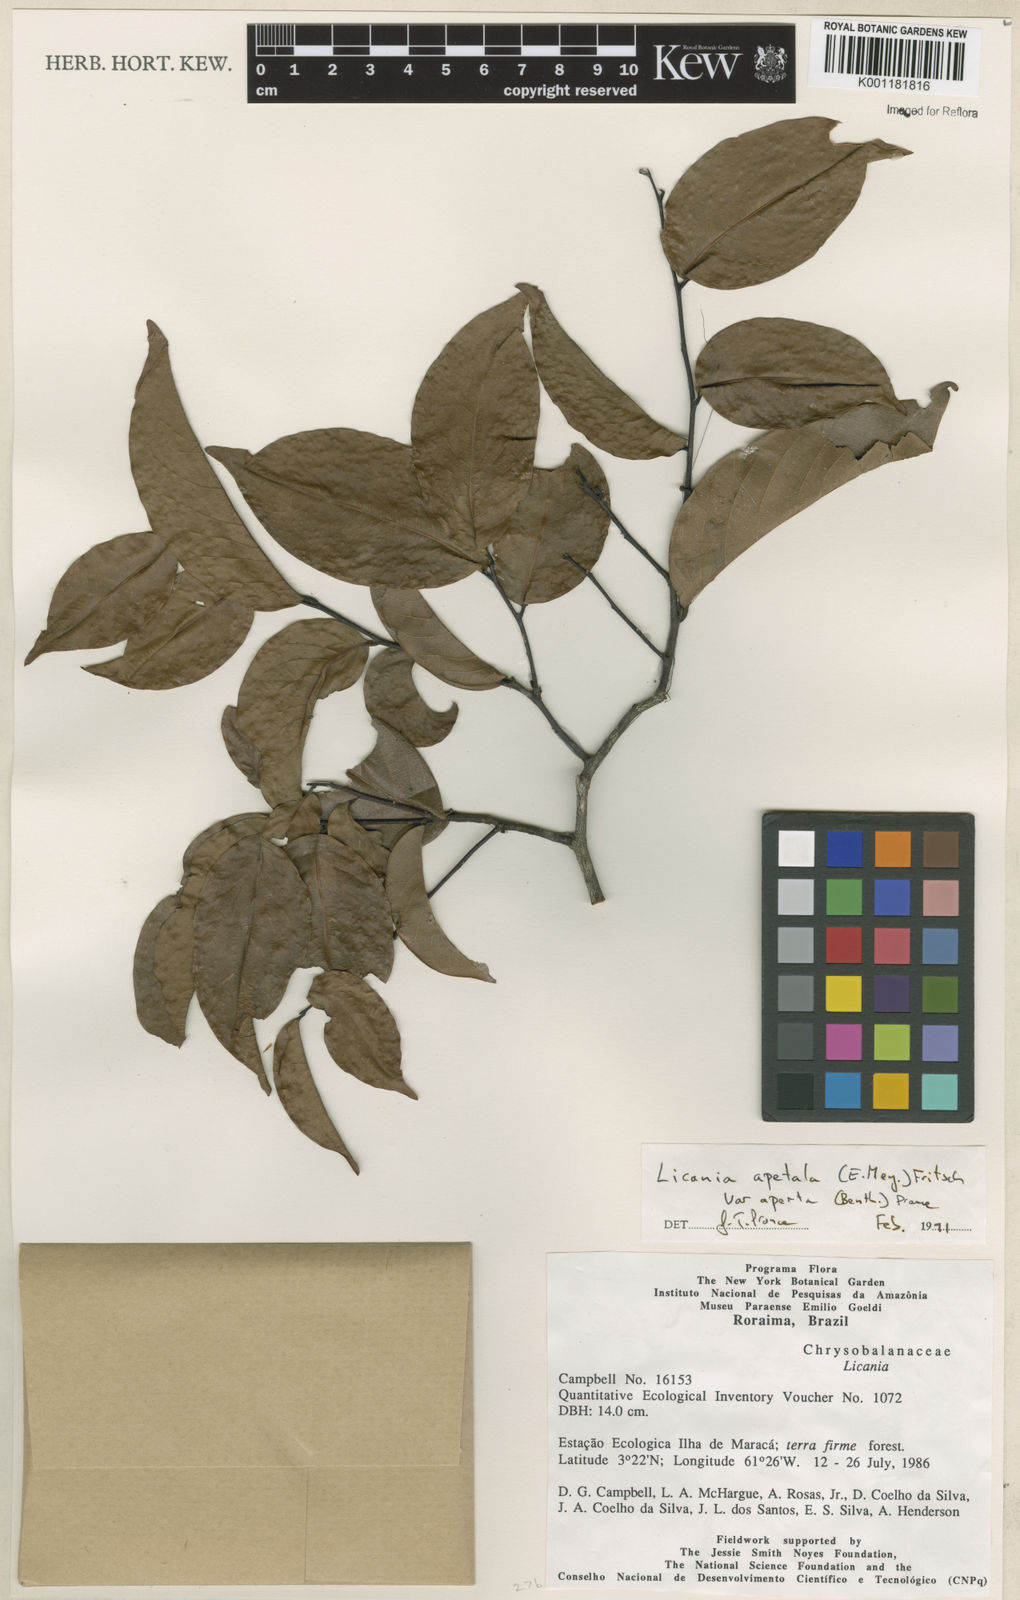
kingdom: Plantae
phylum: Tracheophyta
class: Magnoliopsida
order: Malpighiales
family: Chrysobalanaceae
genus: Leptobalanus
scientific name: Leptobalanus apetalus
